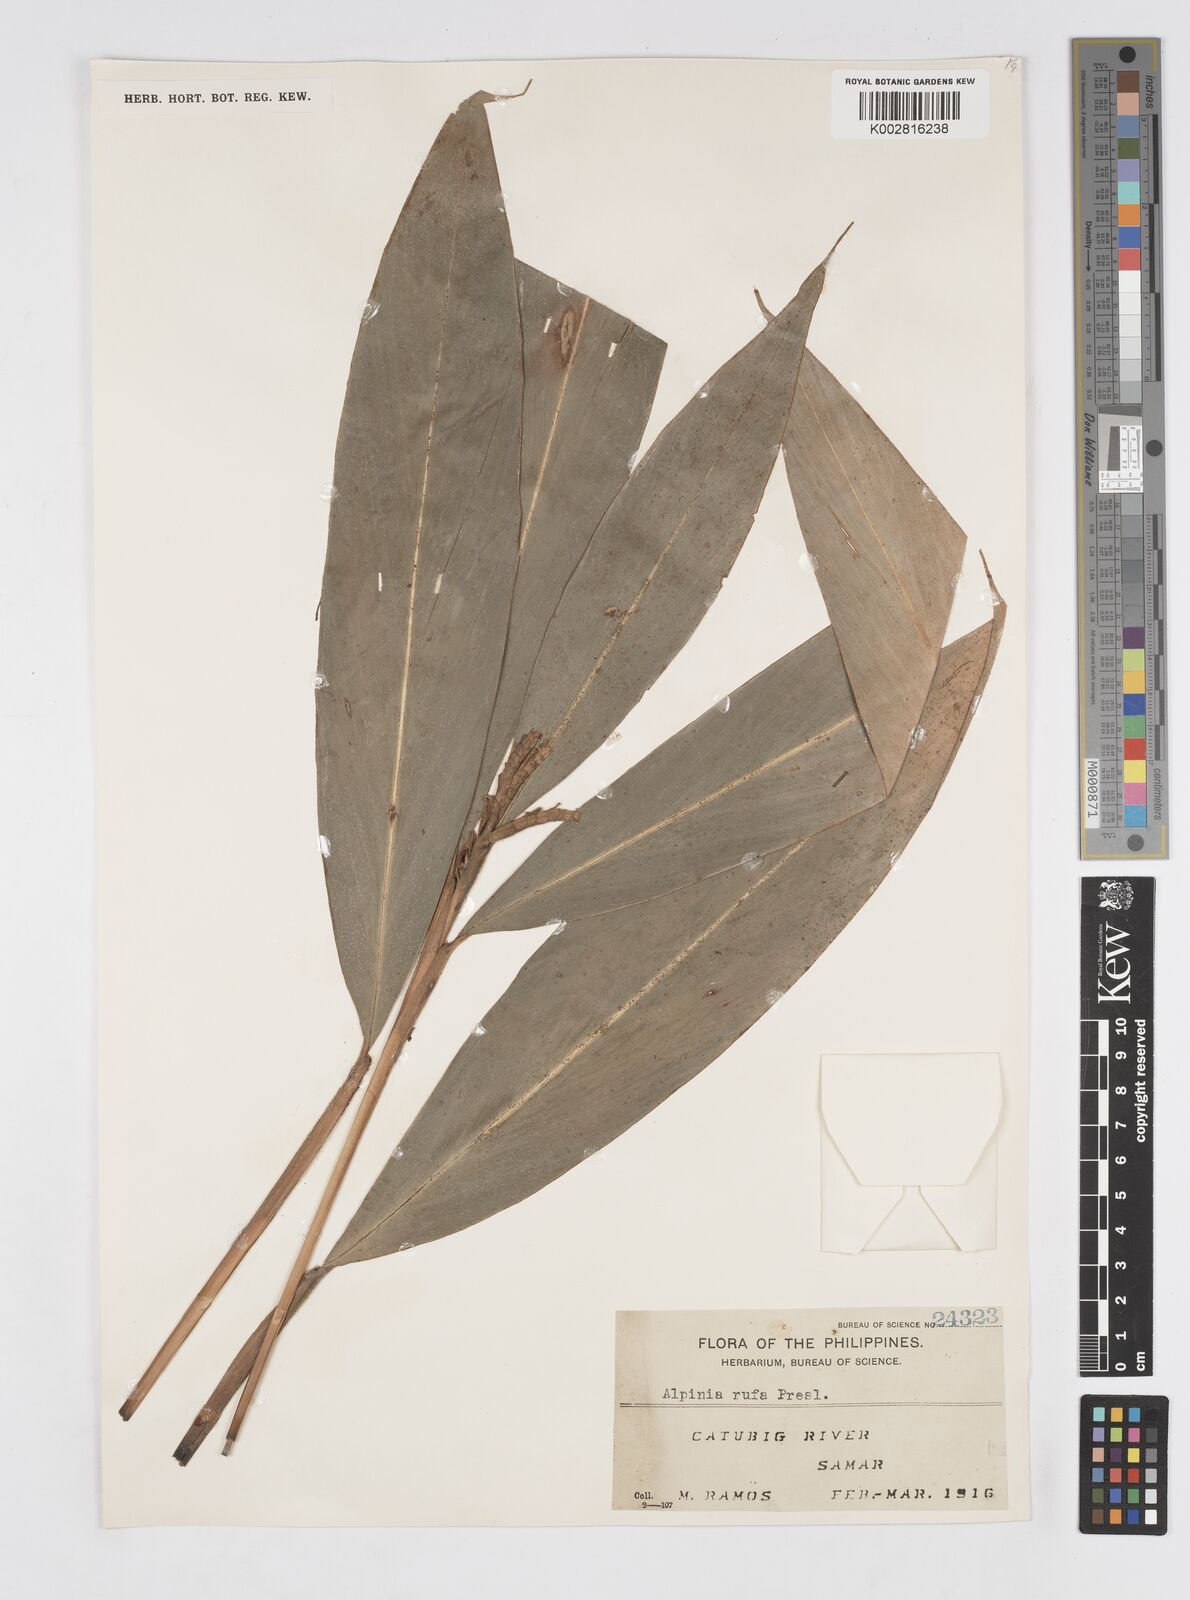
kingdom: Plantae
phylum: Tracheophyta
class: Liliopsida
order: Zingiberales
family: Zingiberaceae
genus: Alpinia
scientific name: Alpinia rufa
